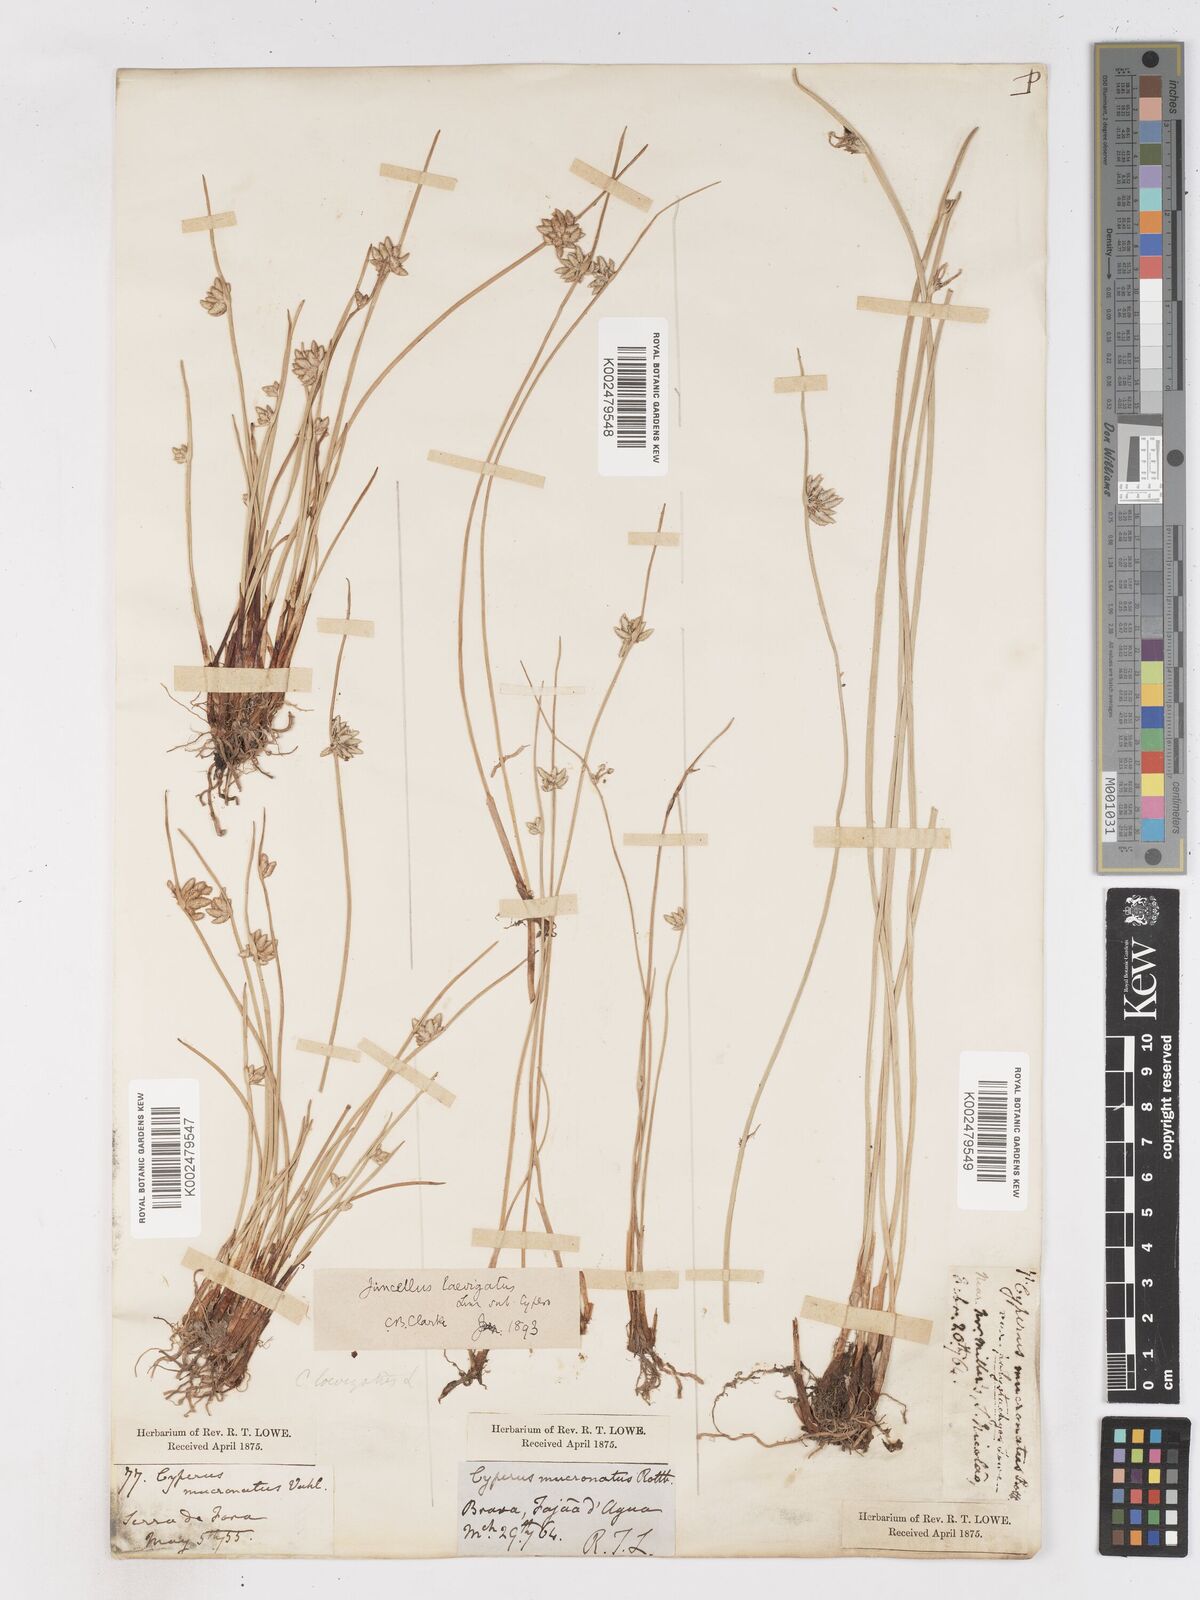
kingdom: Plantae
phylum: Tracheophyta
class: Liliopsida
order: Poales
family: Cyperaceae
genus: Cyperus
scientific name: Cyperus laevigatus
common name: Smooth flat sedge
